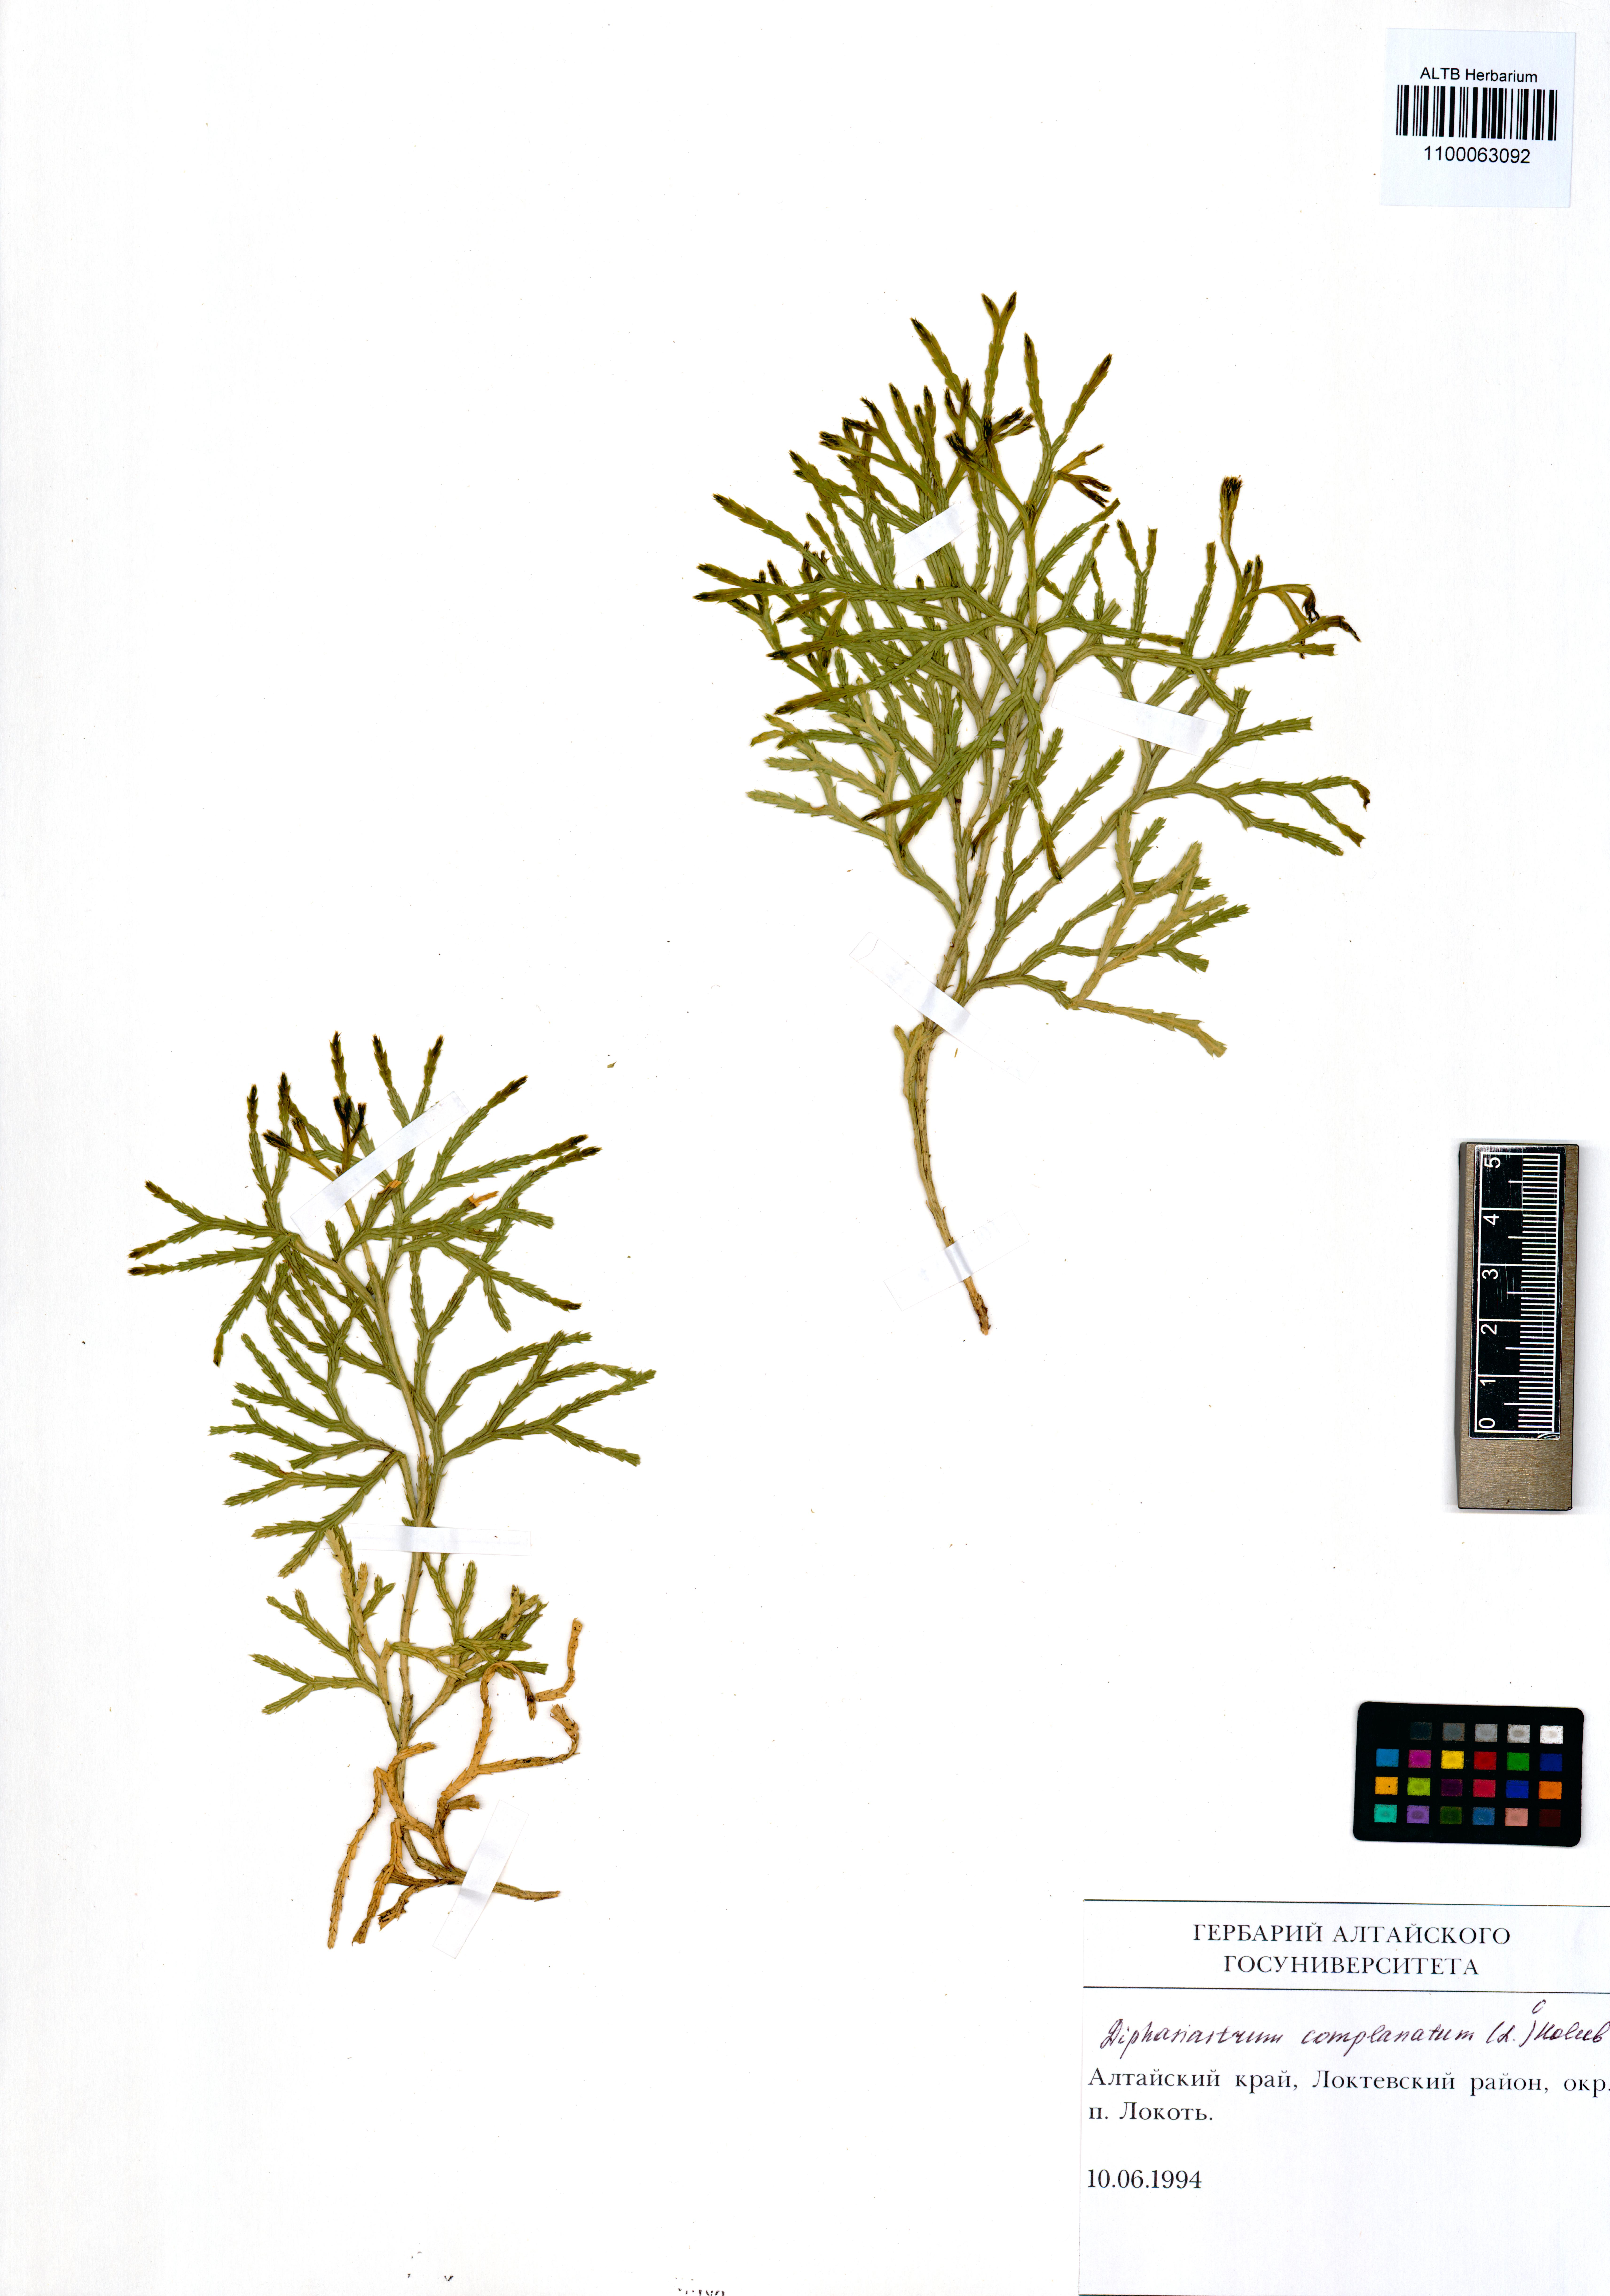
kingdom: Plantae
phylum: Tracheophyta
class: Lycopodiopsida
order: Lycopodiales
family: Lycopodiaceae
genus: Diphasiastrum
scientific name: Diphasiastrum complanatum
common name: Northern running-pine
